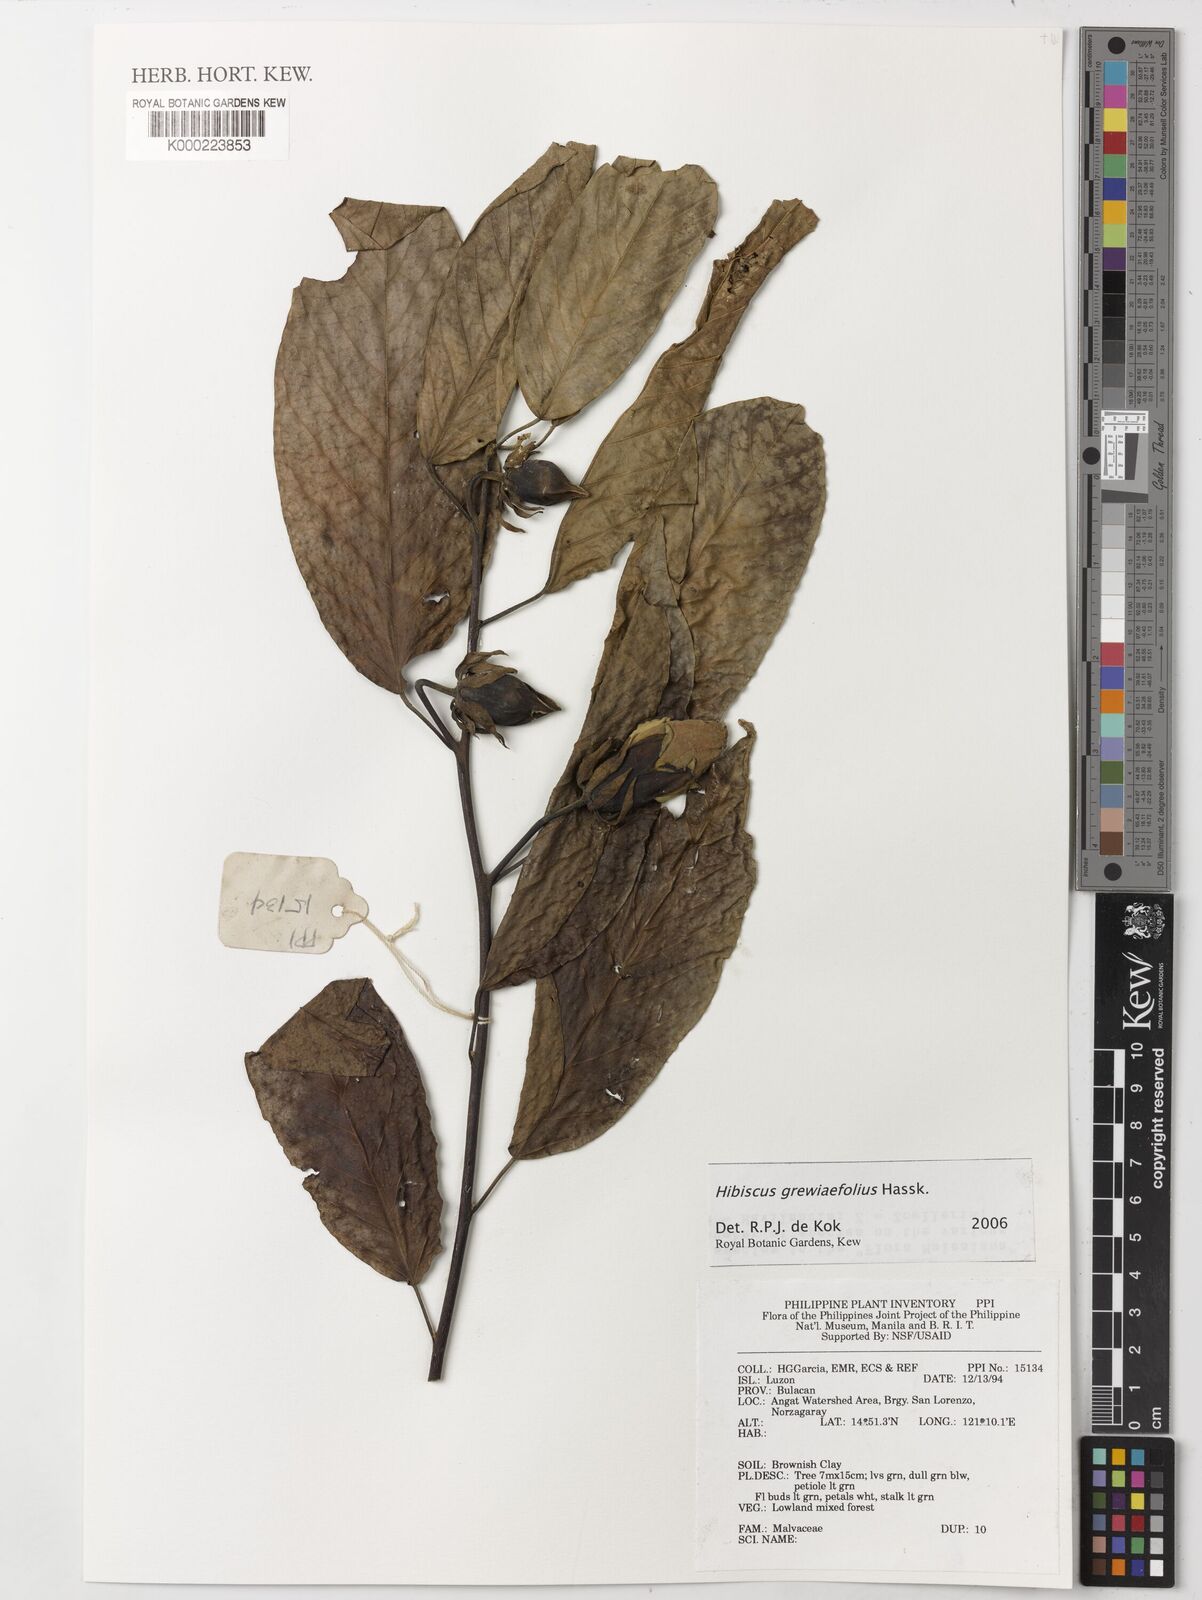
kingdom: Plantae
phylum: Tracheophyta
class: Magnoliopsida
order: Malvales
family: Malvaceae
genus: Hibiscus
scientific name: Hibiscus
